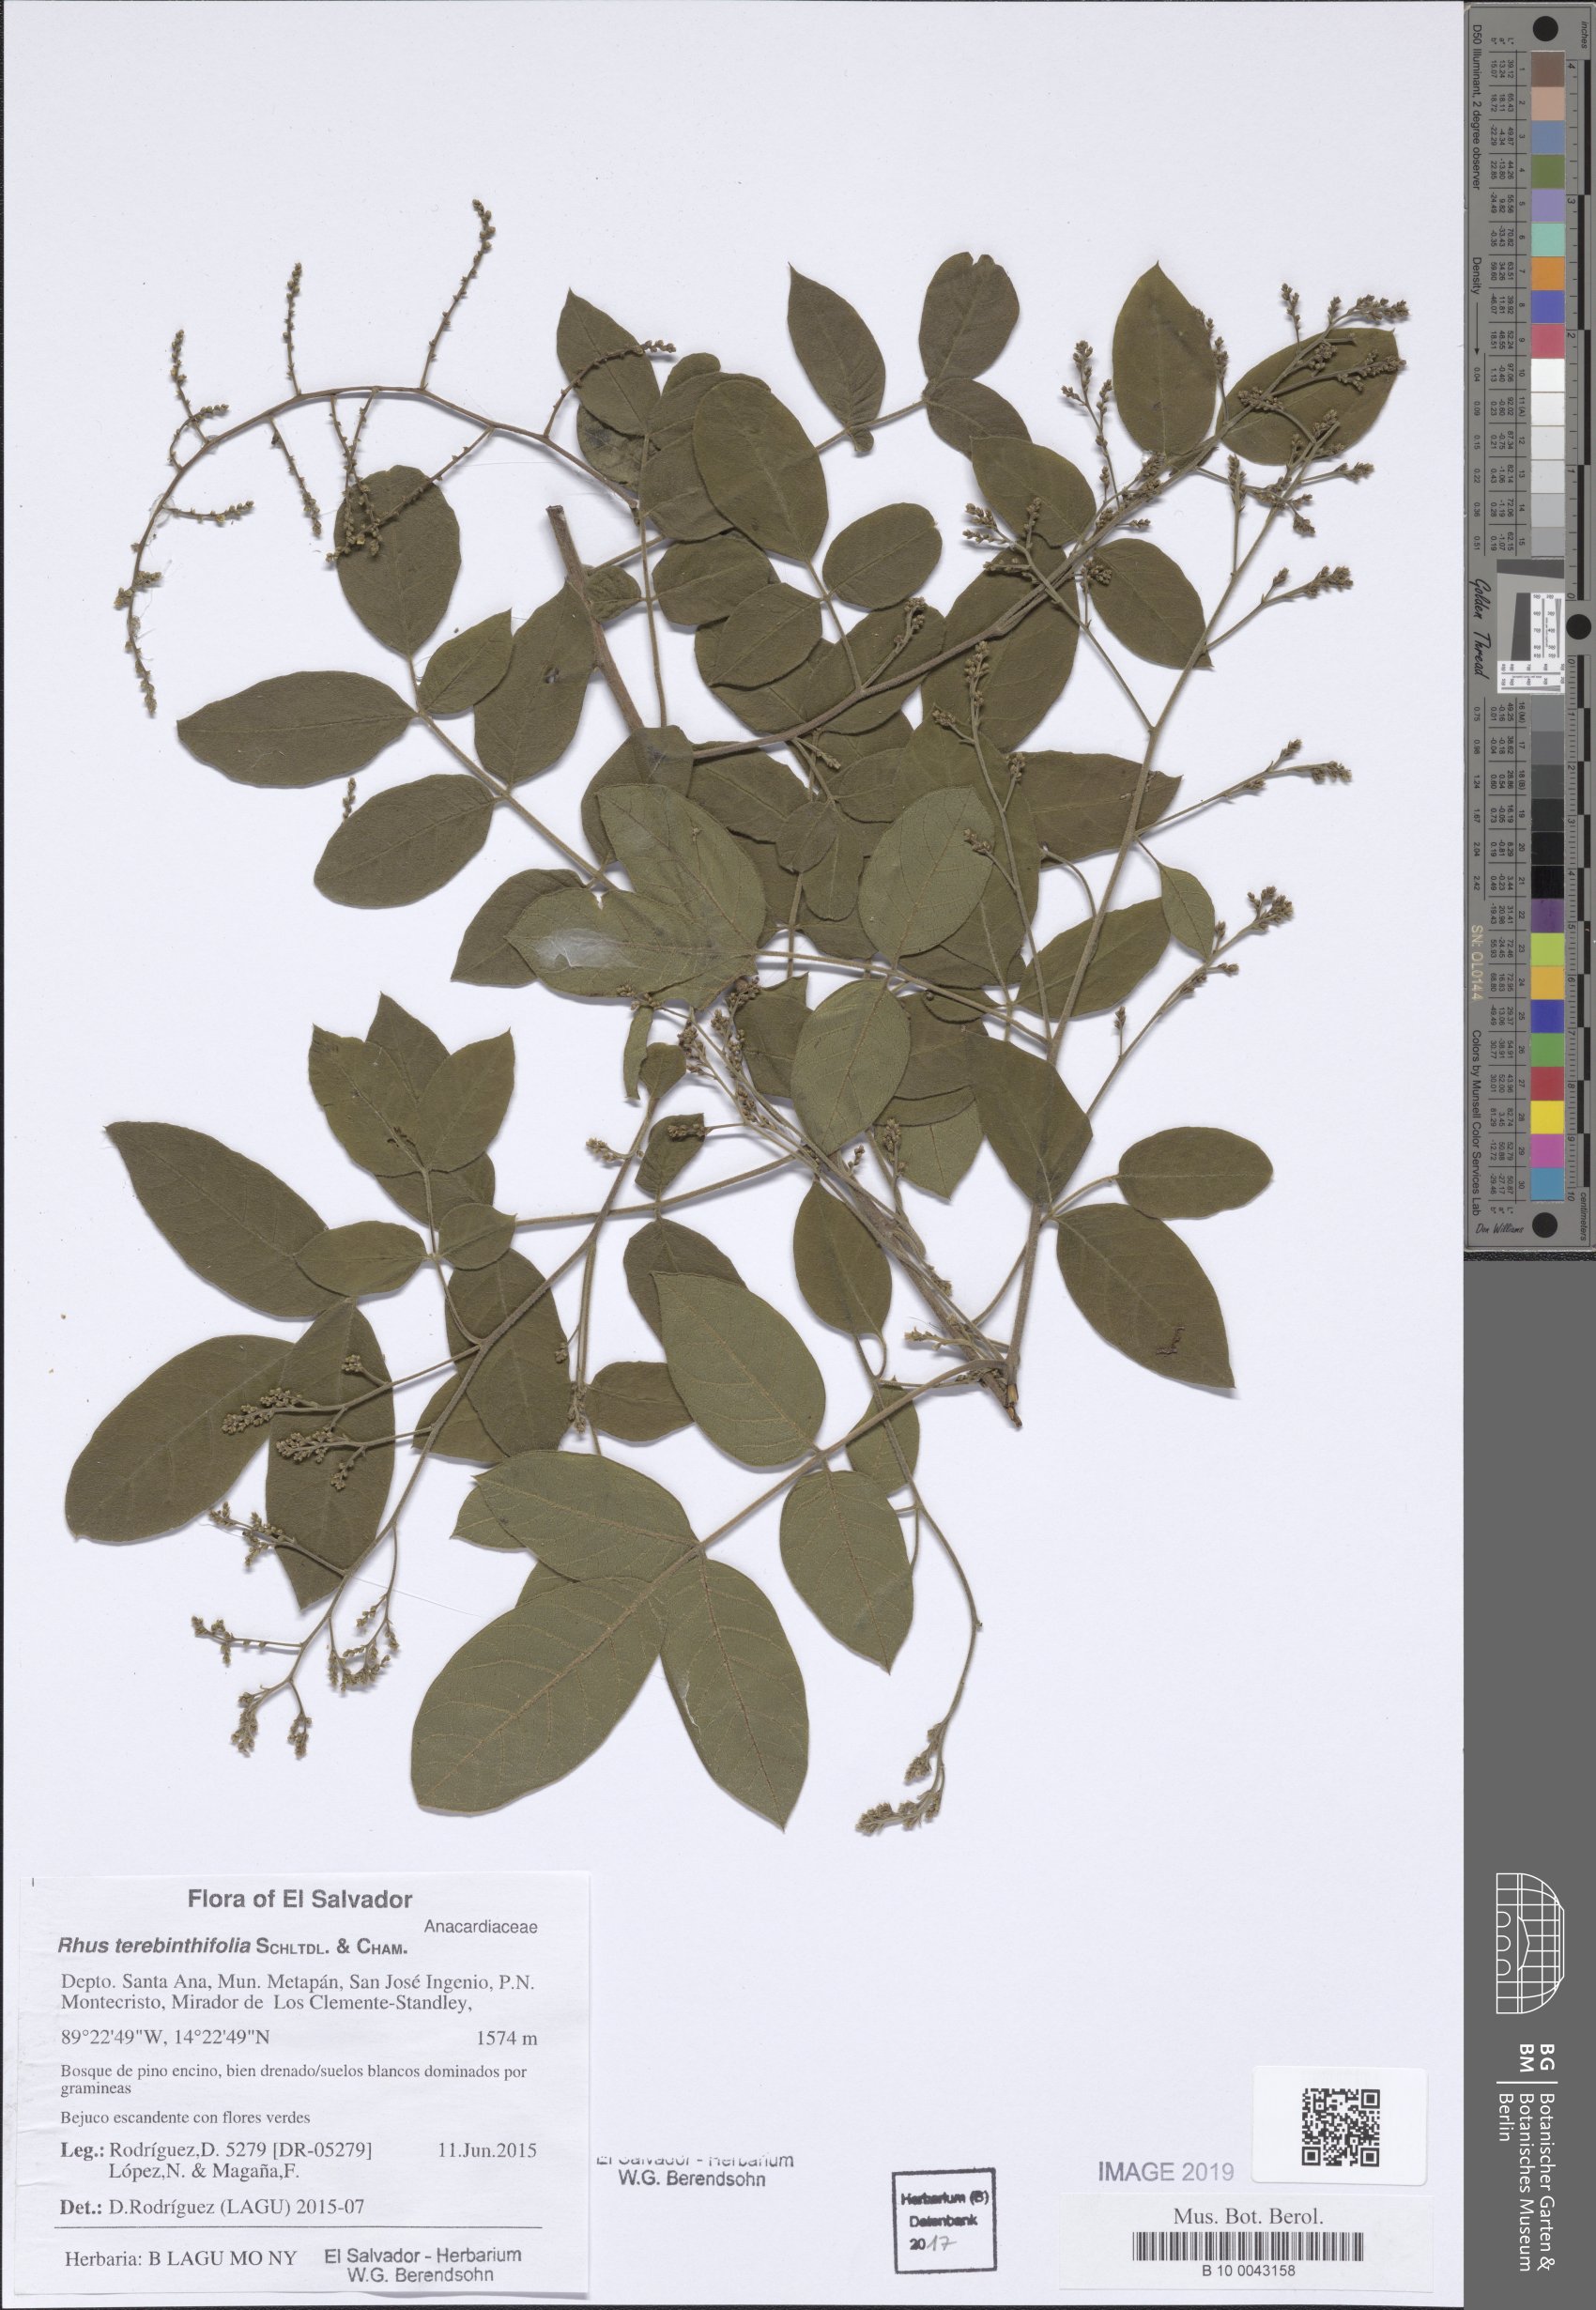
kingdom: Plantae
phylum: Tracheophyta
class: Magnoliopsida
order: Sapindales
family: Anacardiaceae
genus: Rhus
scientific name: Rhus terebinthifolia
